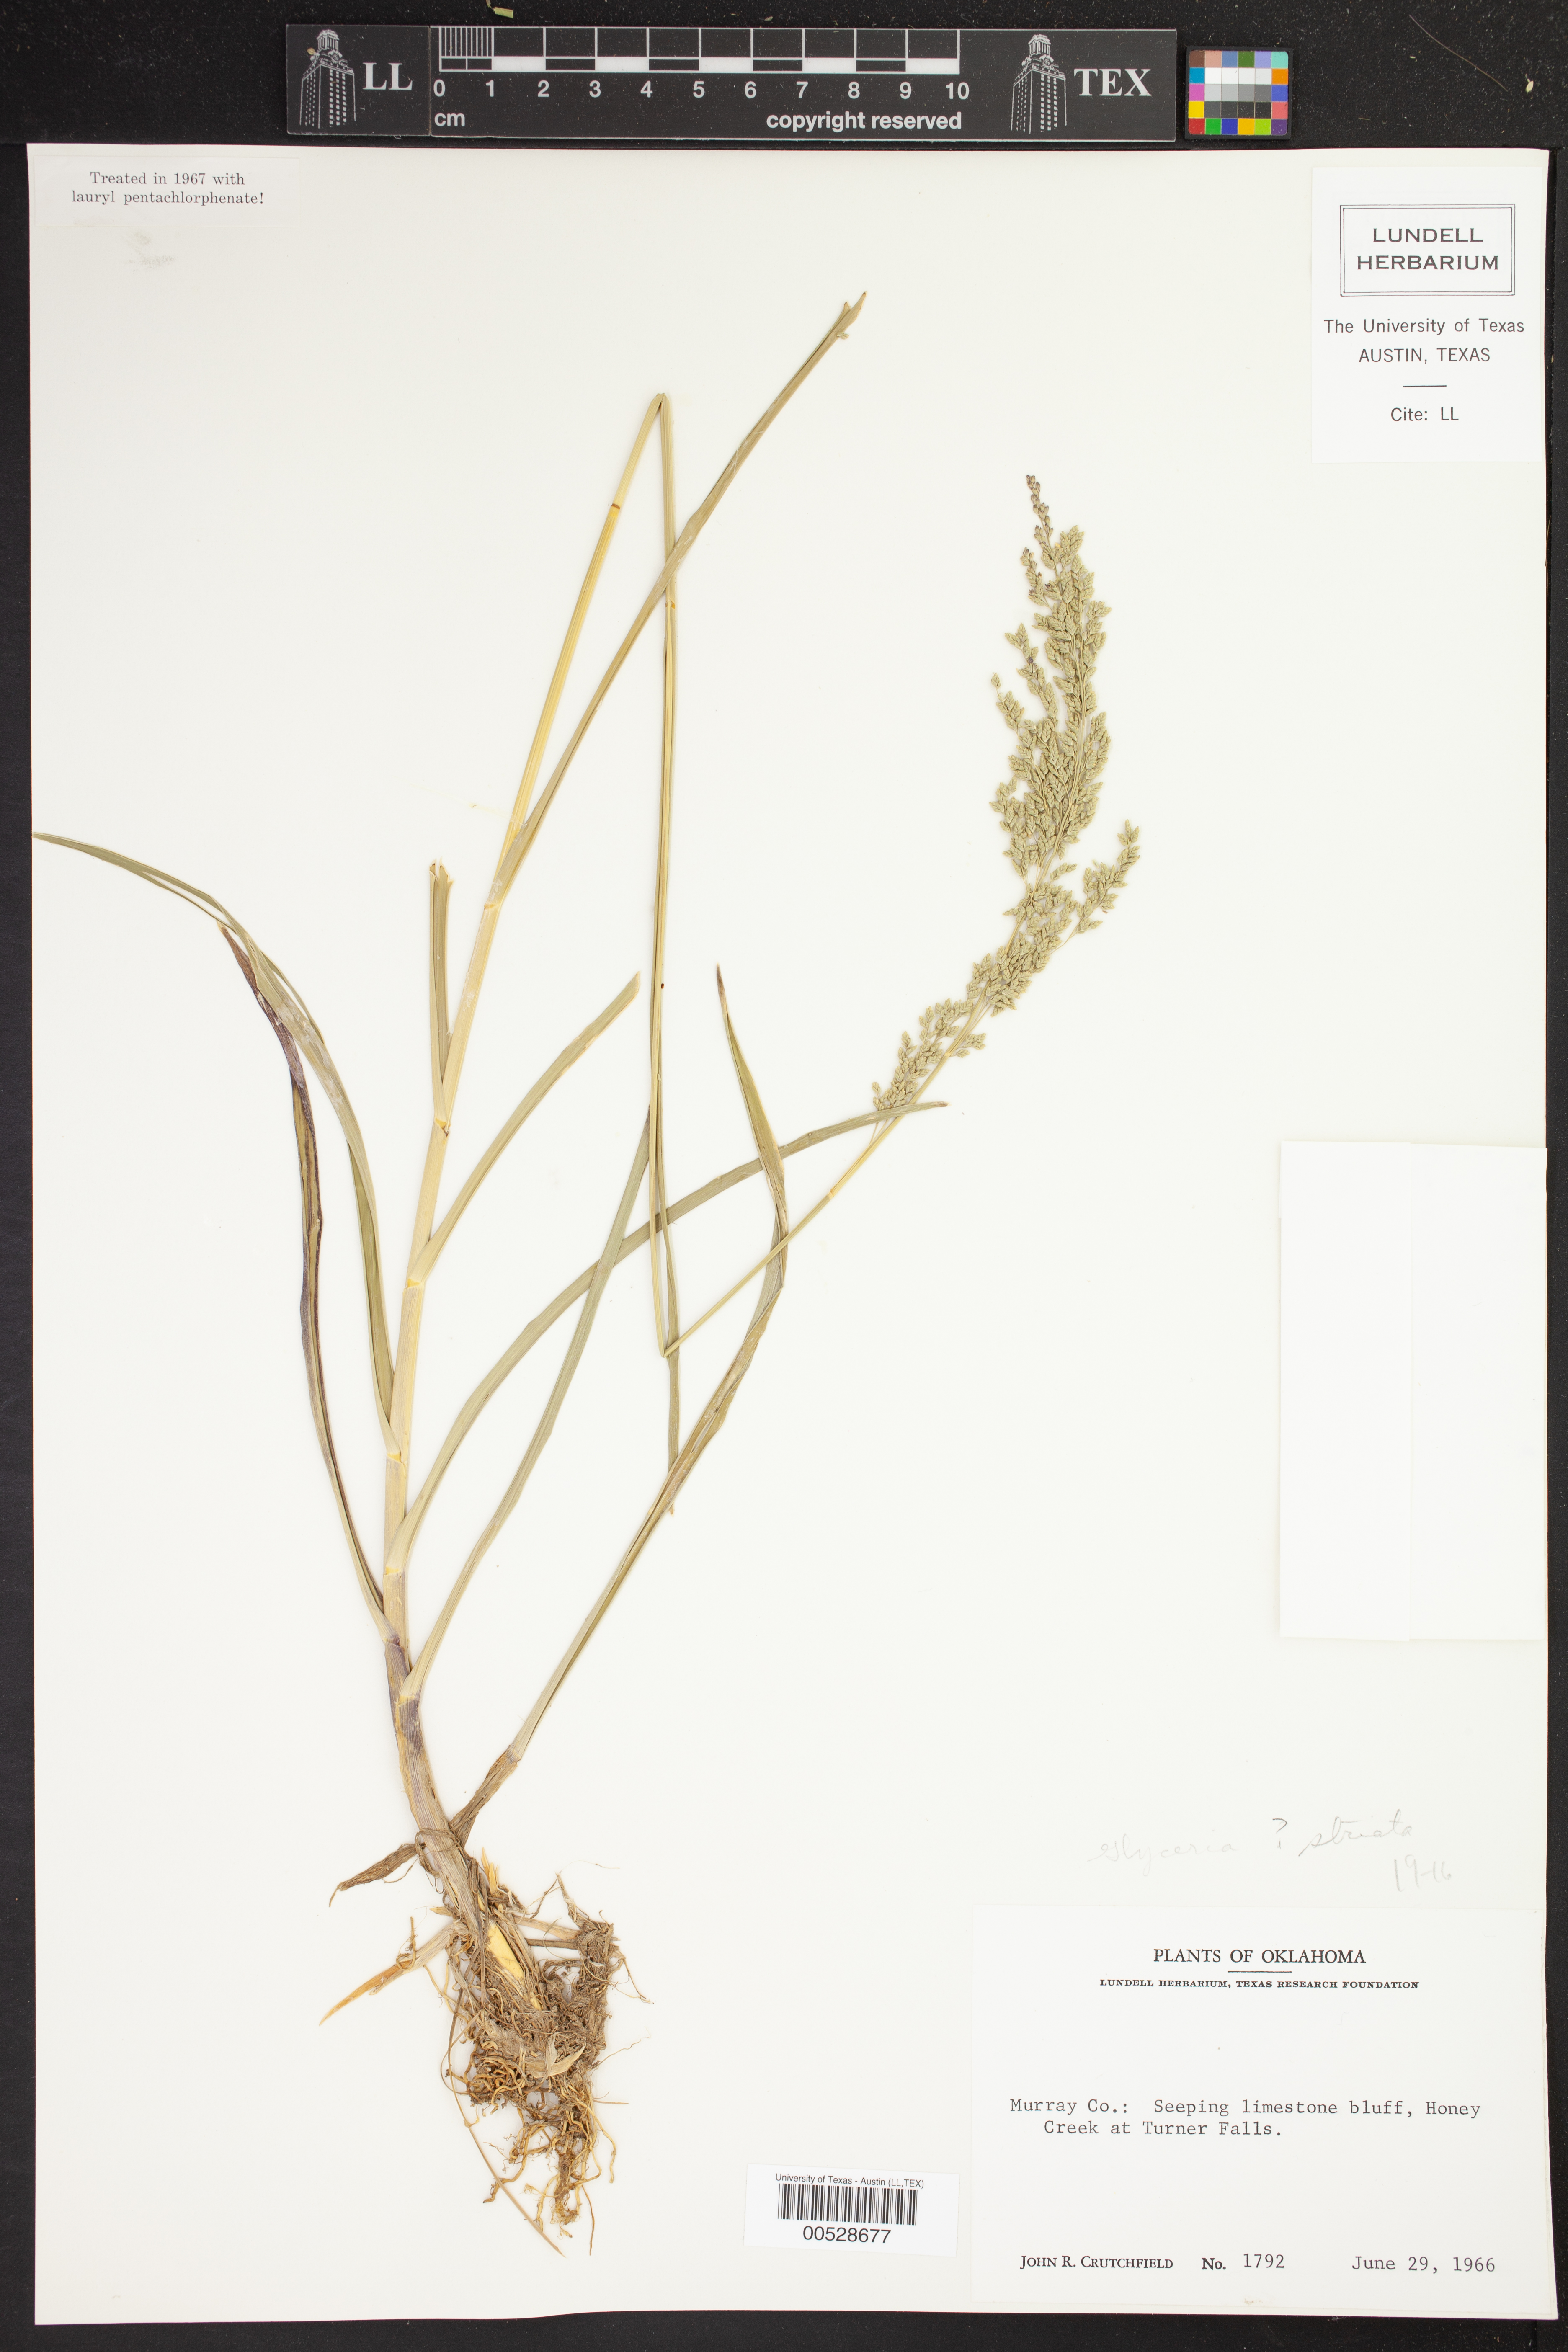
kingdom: Plantae
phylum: Tracheophyta
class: Liliopsida
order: Poales
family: Poaceae
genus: Glyceria
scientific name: Glyceria striata
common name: Fowl manna grass
